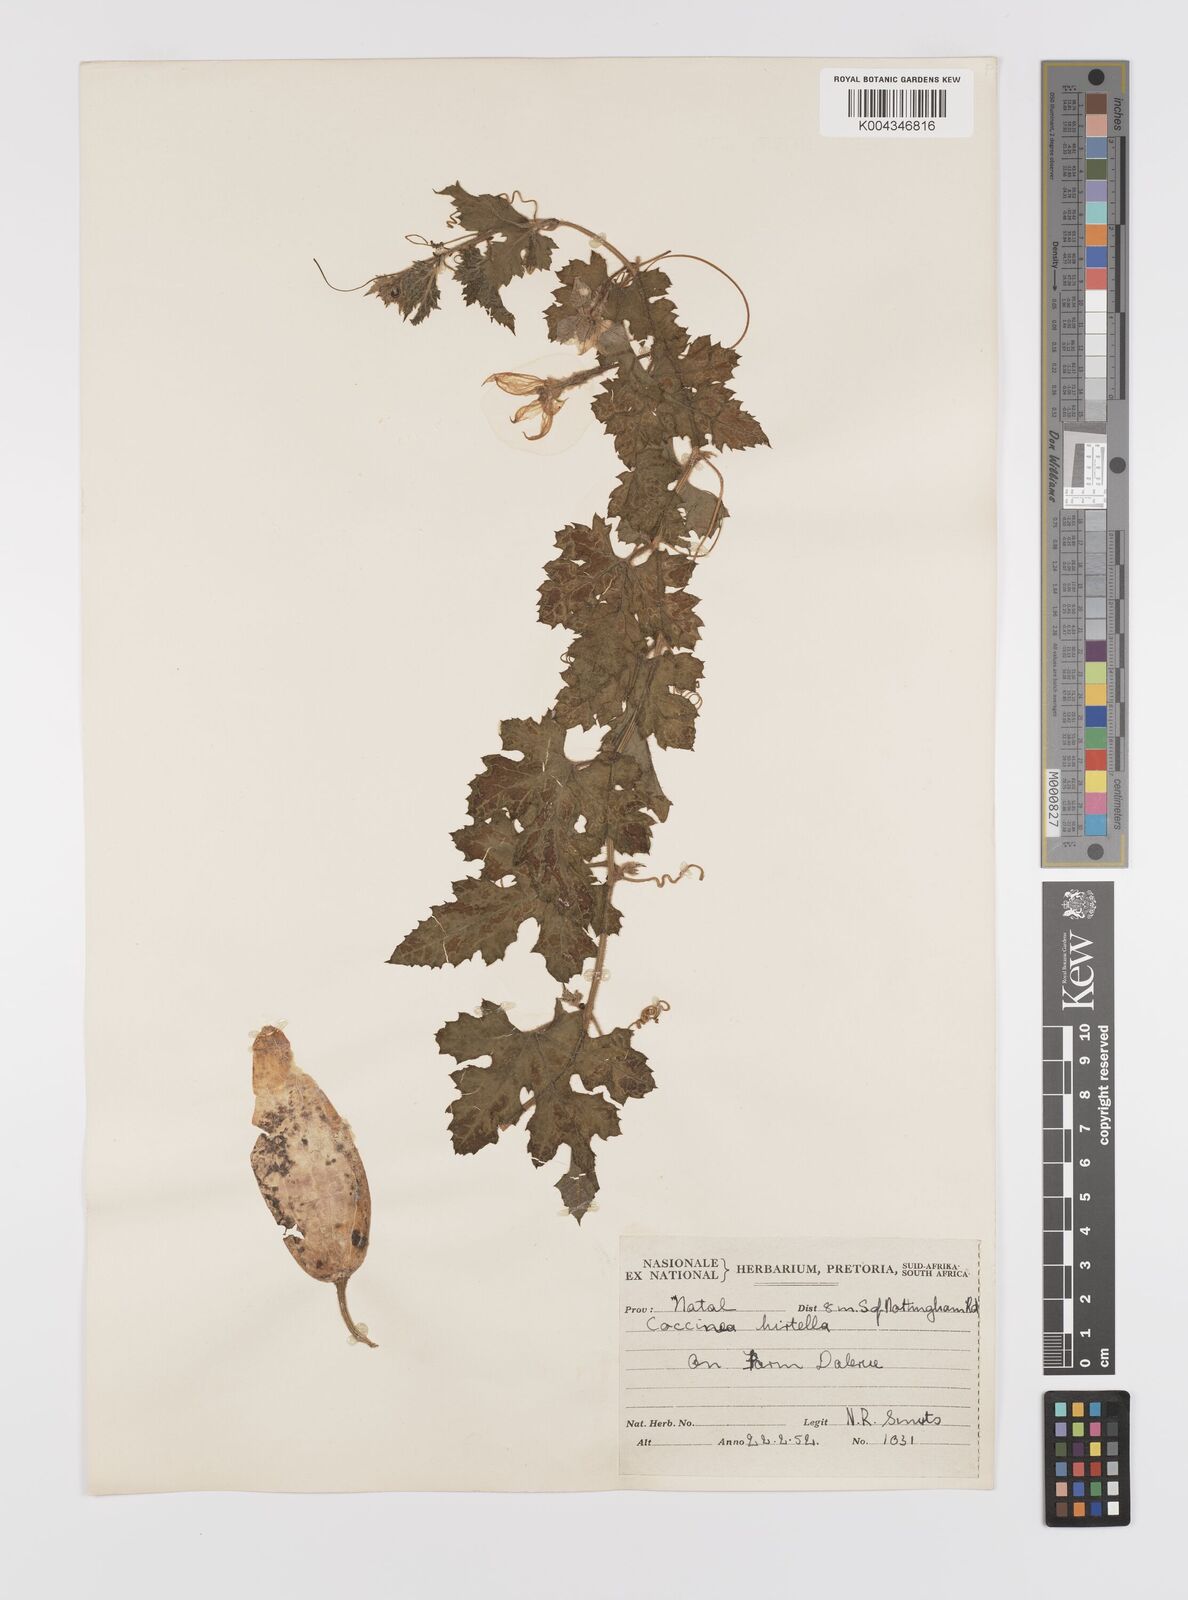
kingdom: Plantae
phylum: Tracheophyta
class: Magnoliopsida
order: Cucurbitales
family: Cucurbitaceae
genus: Coccinia
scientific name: Coccinia hirtella
